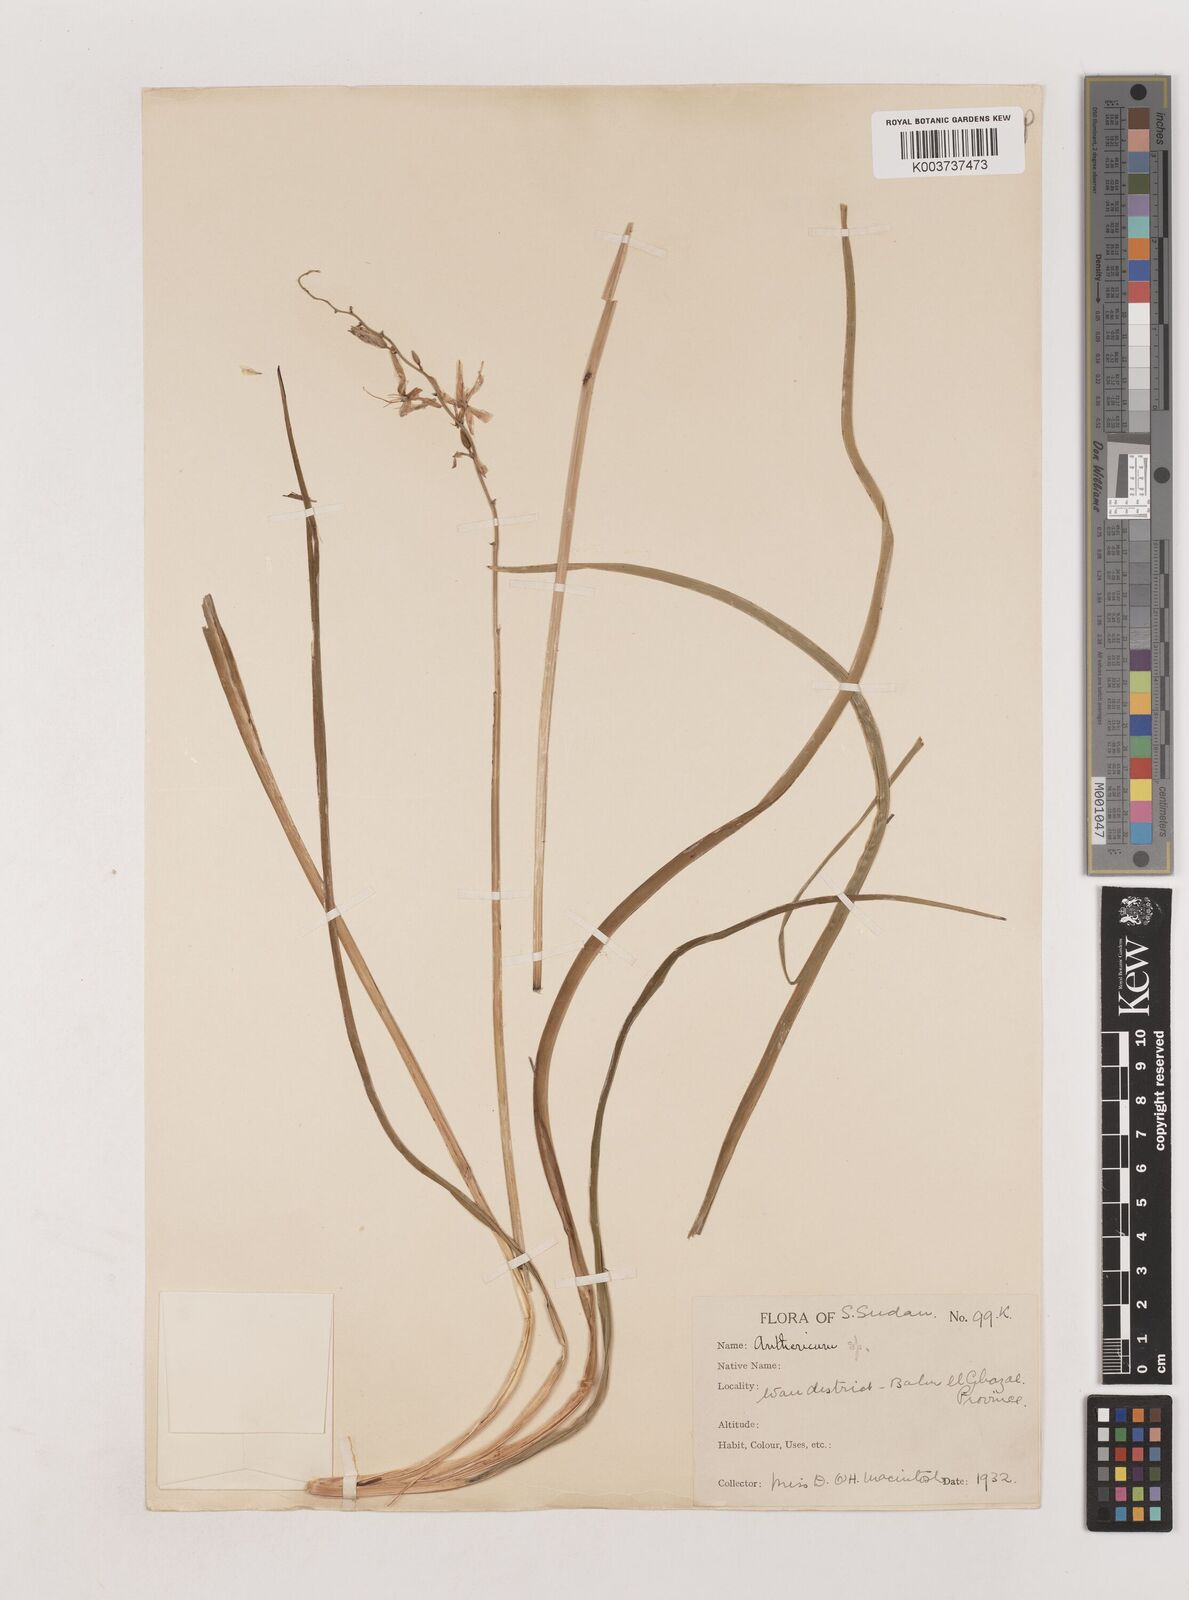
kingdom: Plantae
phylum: Tracheophyta
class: Liliopsida
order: Asparagales
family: Asparagaceae
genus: Chlorophytum
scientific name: Chlorophytum cameronii
